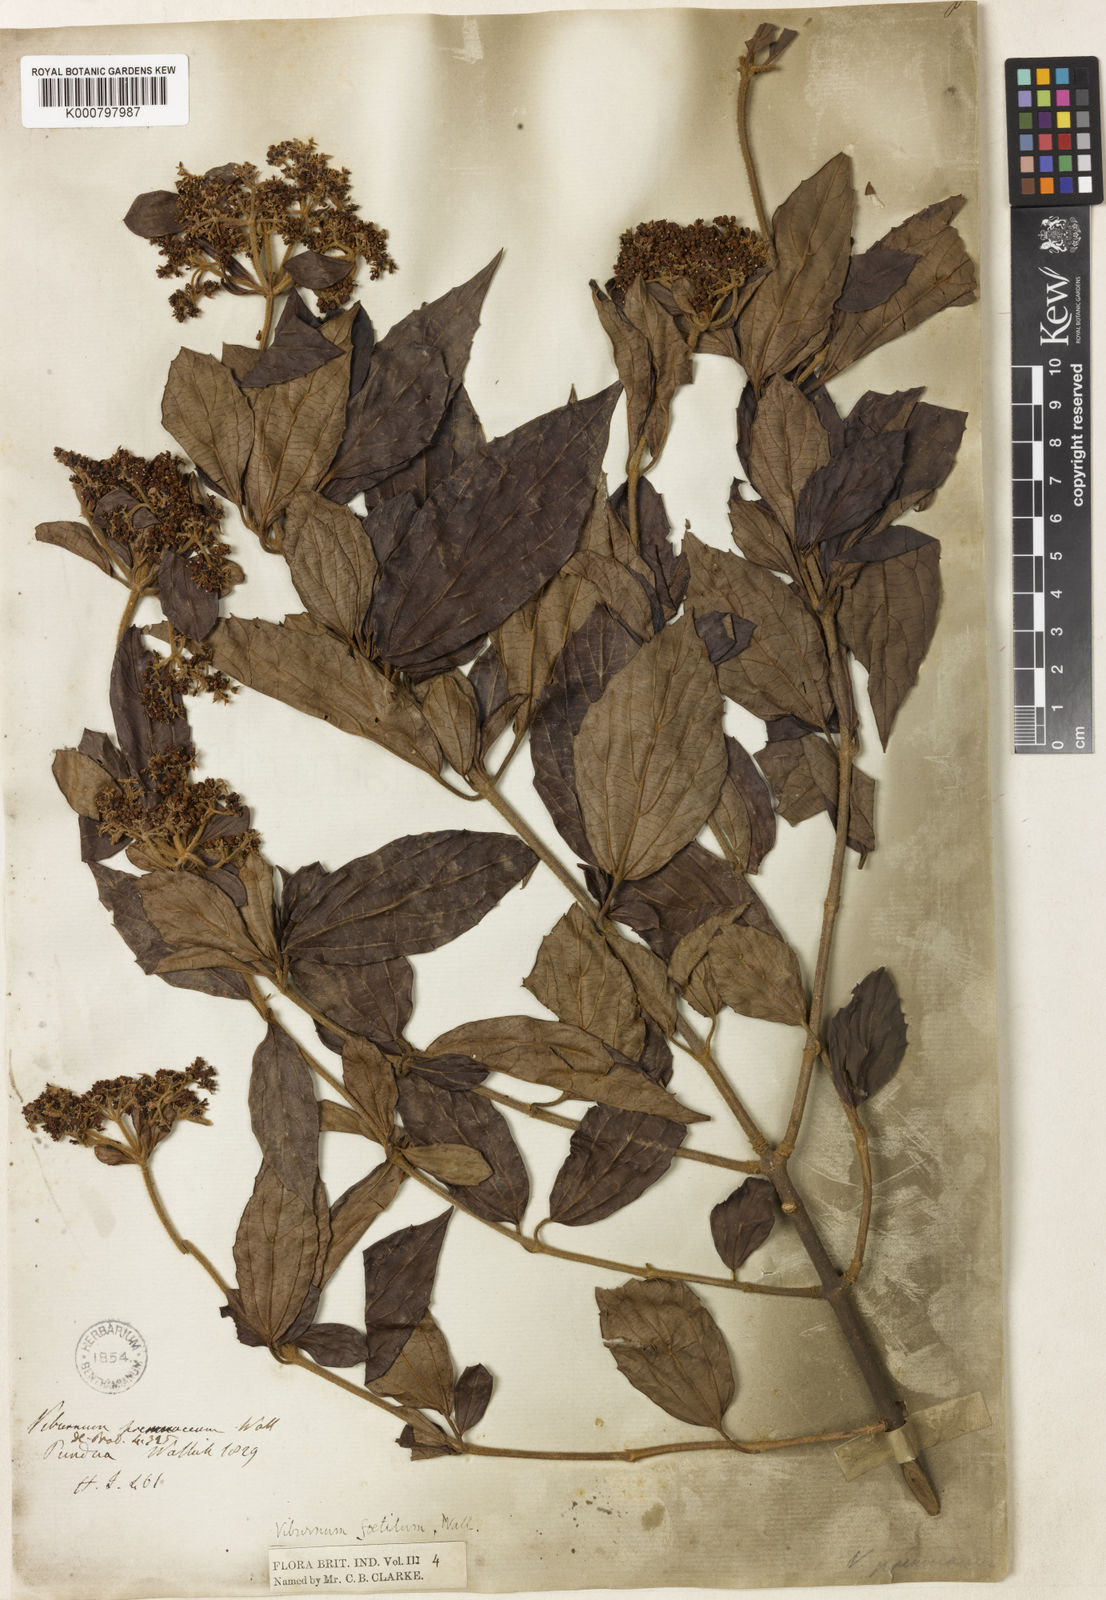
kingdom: Plantae
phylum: Tracheophyta
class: Magnoliopsida
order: Dipsacales
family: Viburnaceae
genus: Viburnum
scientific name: Viburnum foetidum
